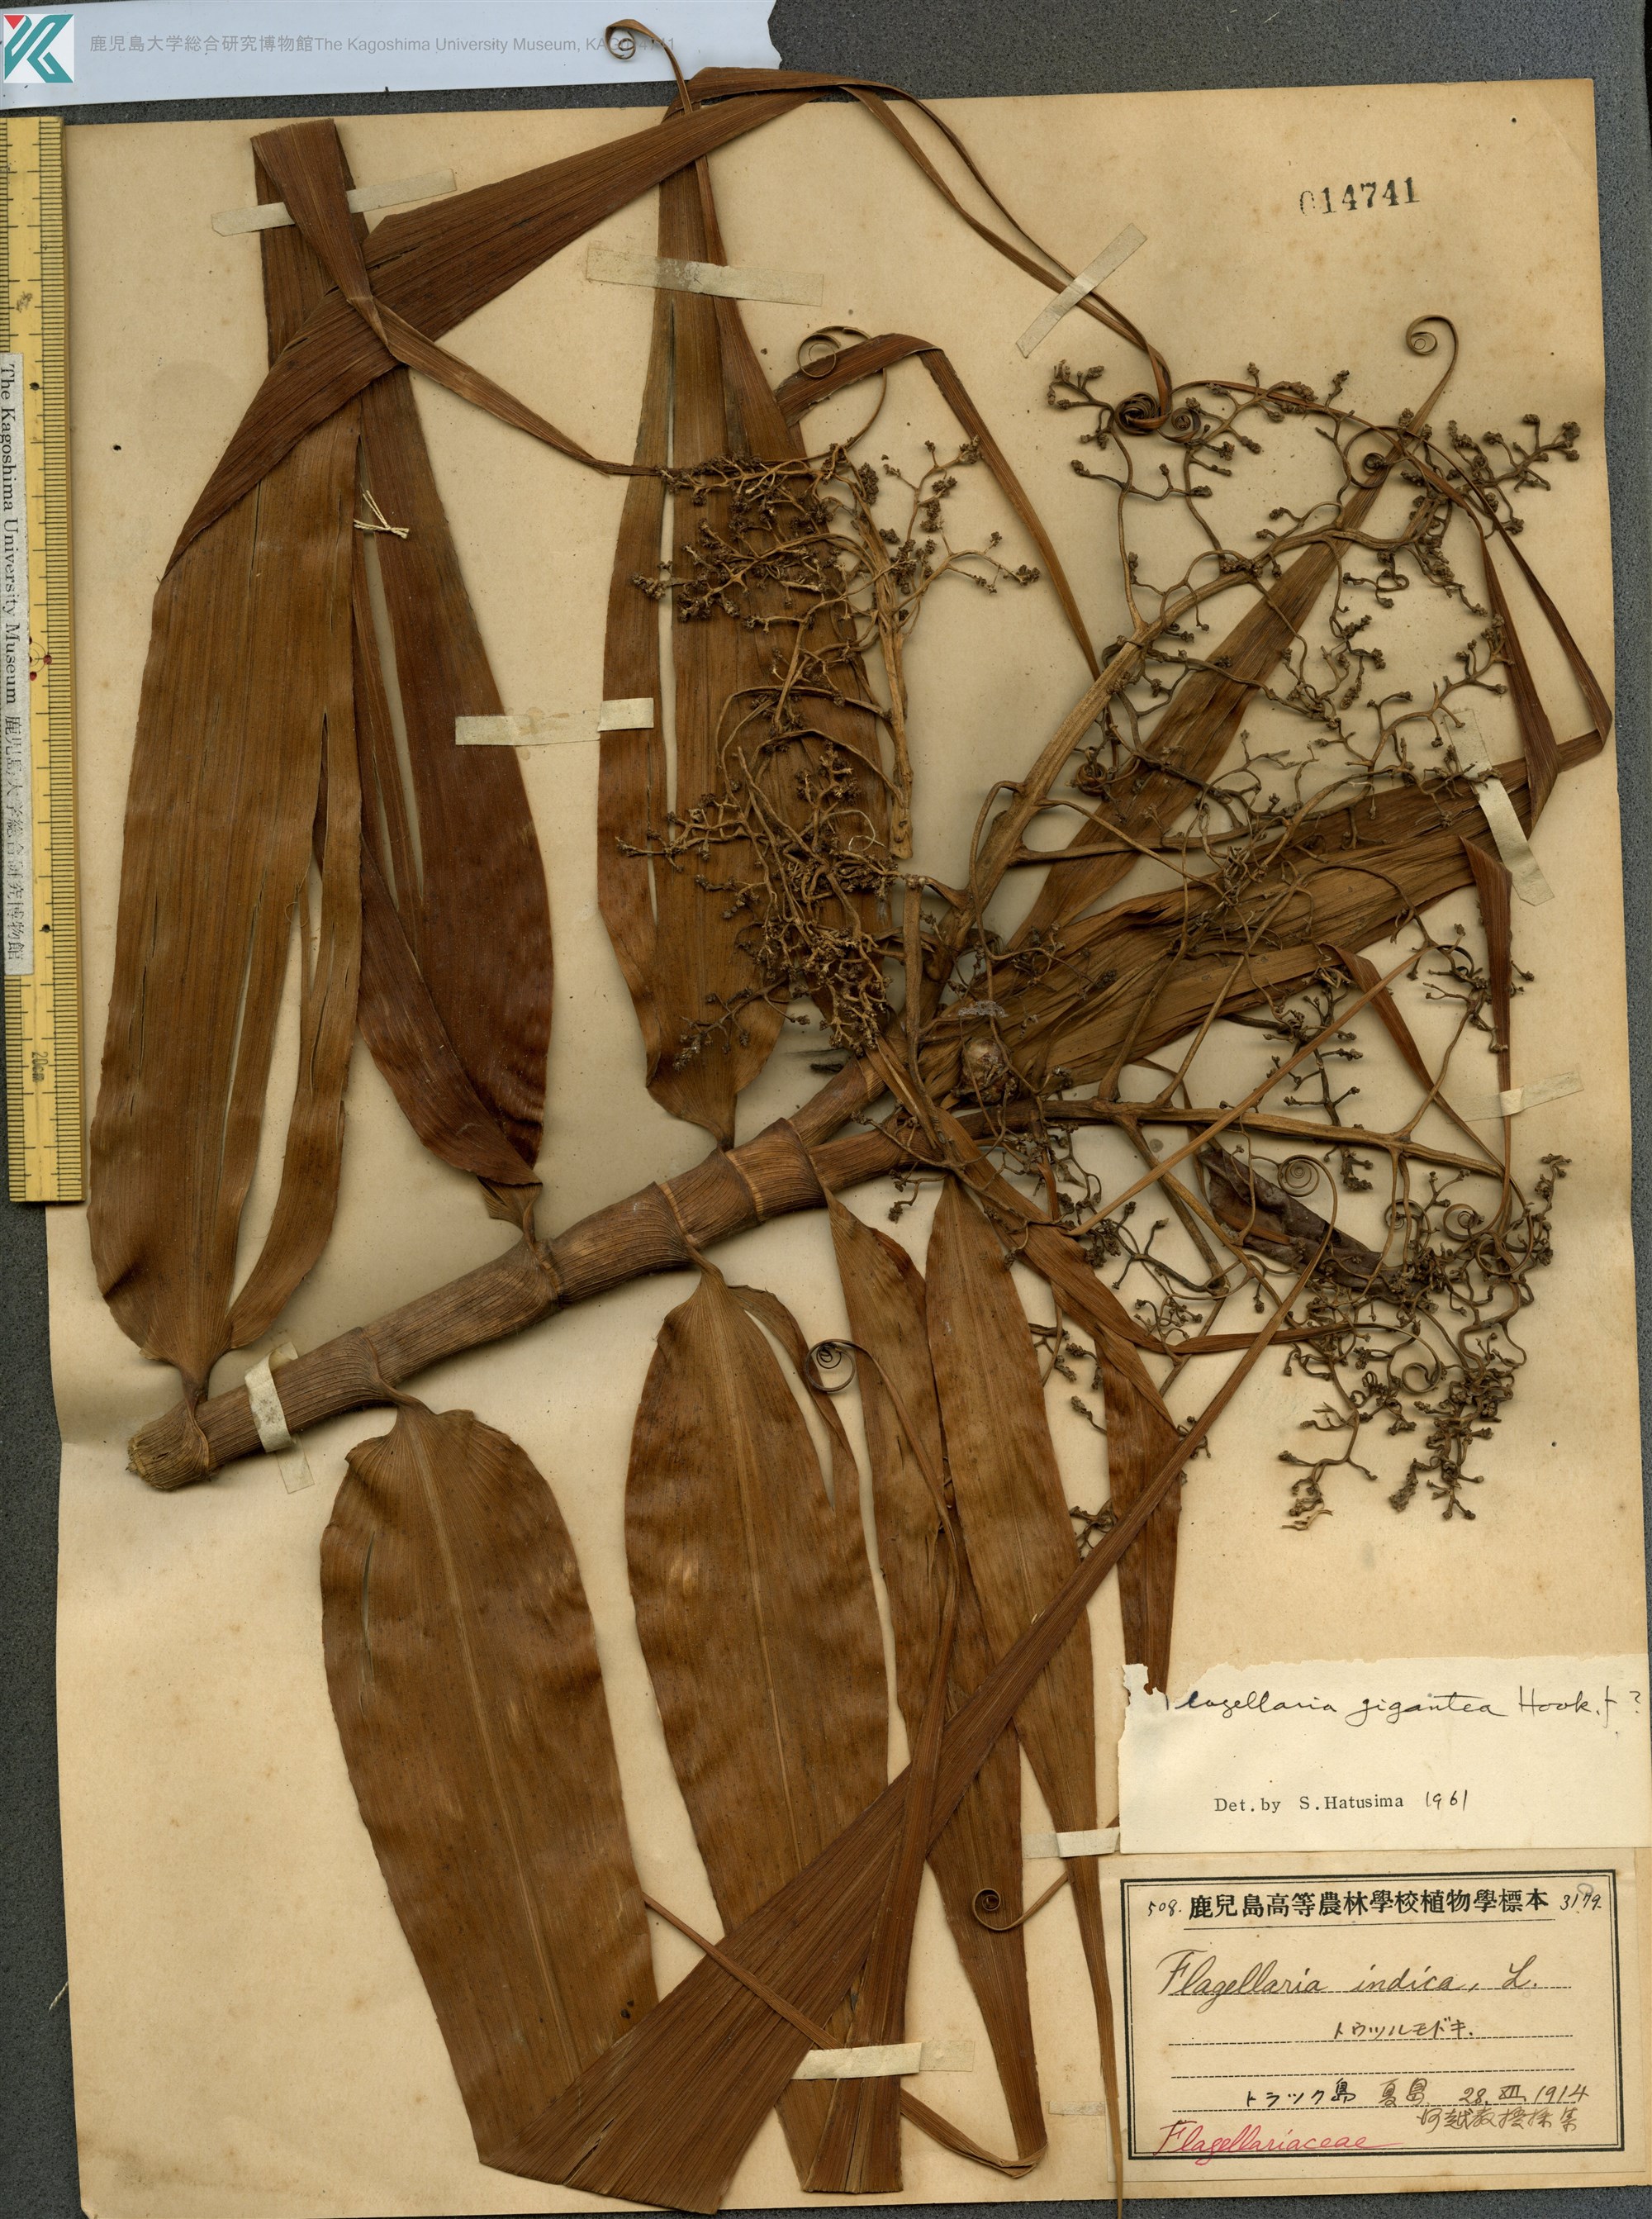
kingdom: Plantae
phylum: Tracheophyta
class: Liliopsida
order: Poales
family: Flagellariaceae
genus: Flagellaria
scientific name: Flagellaria indica
